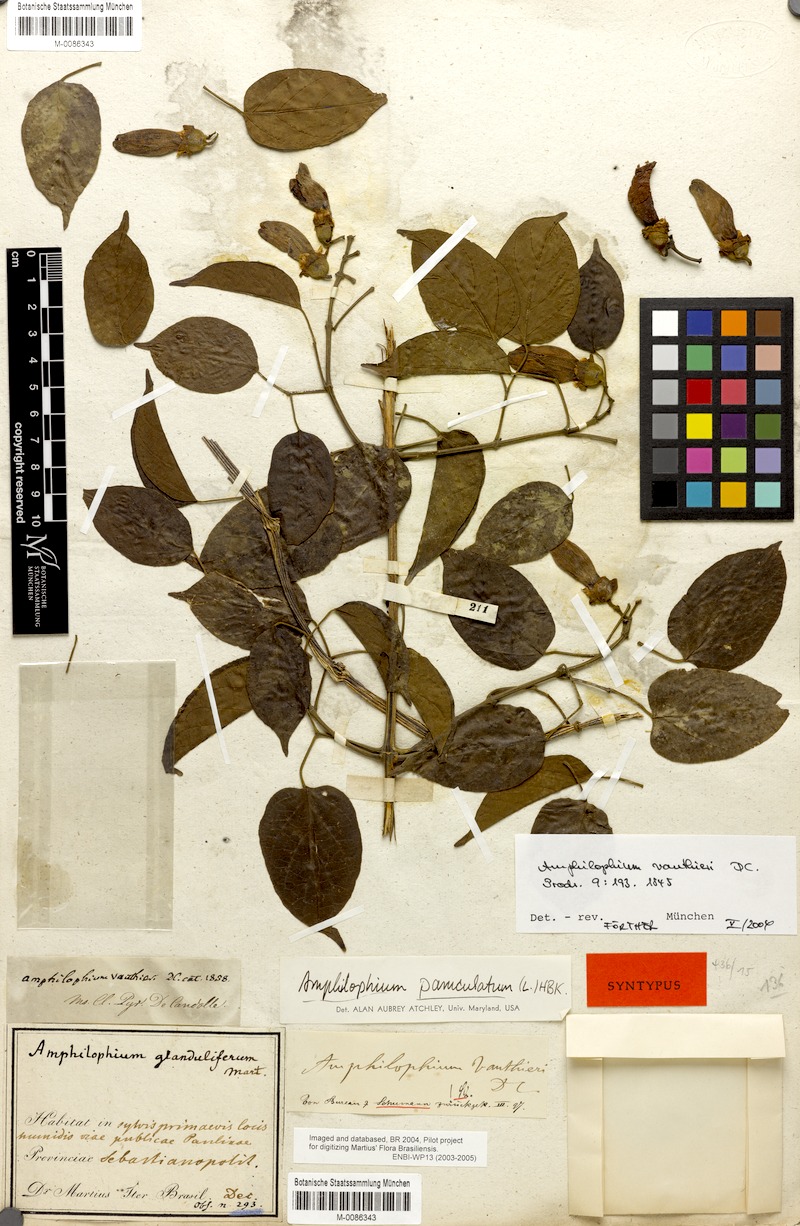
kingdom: Plantae
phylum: Tracheophyta
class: Magnoliopsida
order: Lamiales
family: Bignoniaceae
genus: Amphilophium
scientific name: Amphilophium paniculatum
